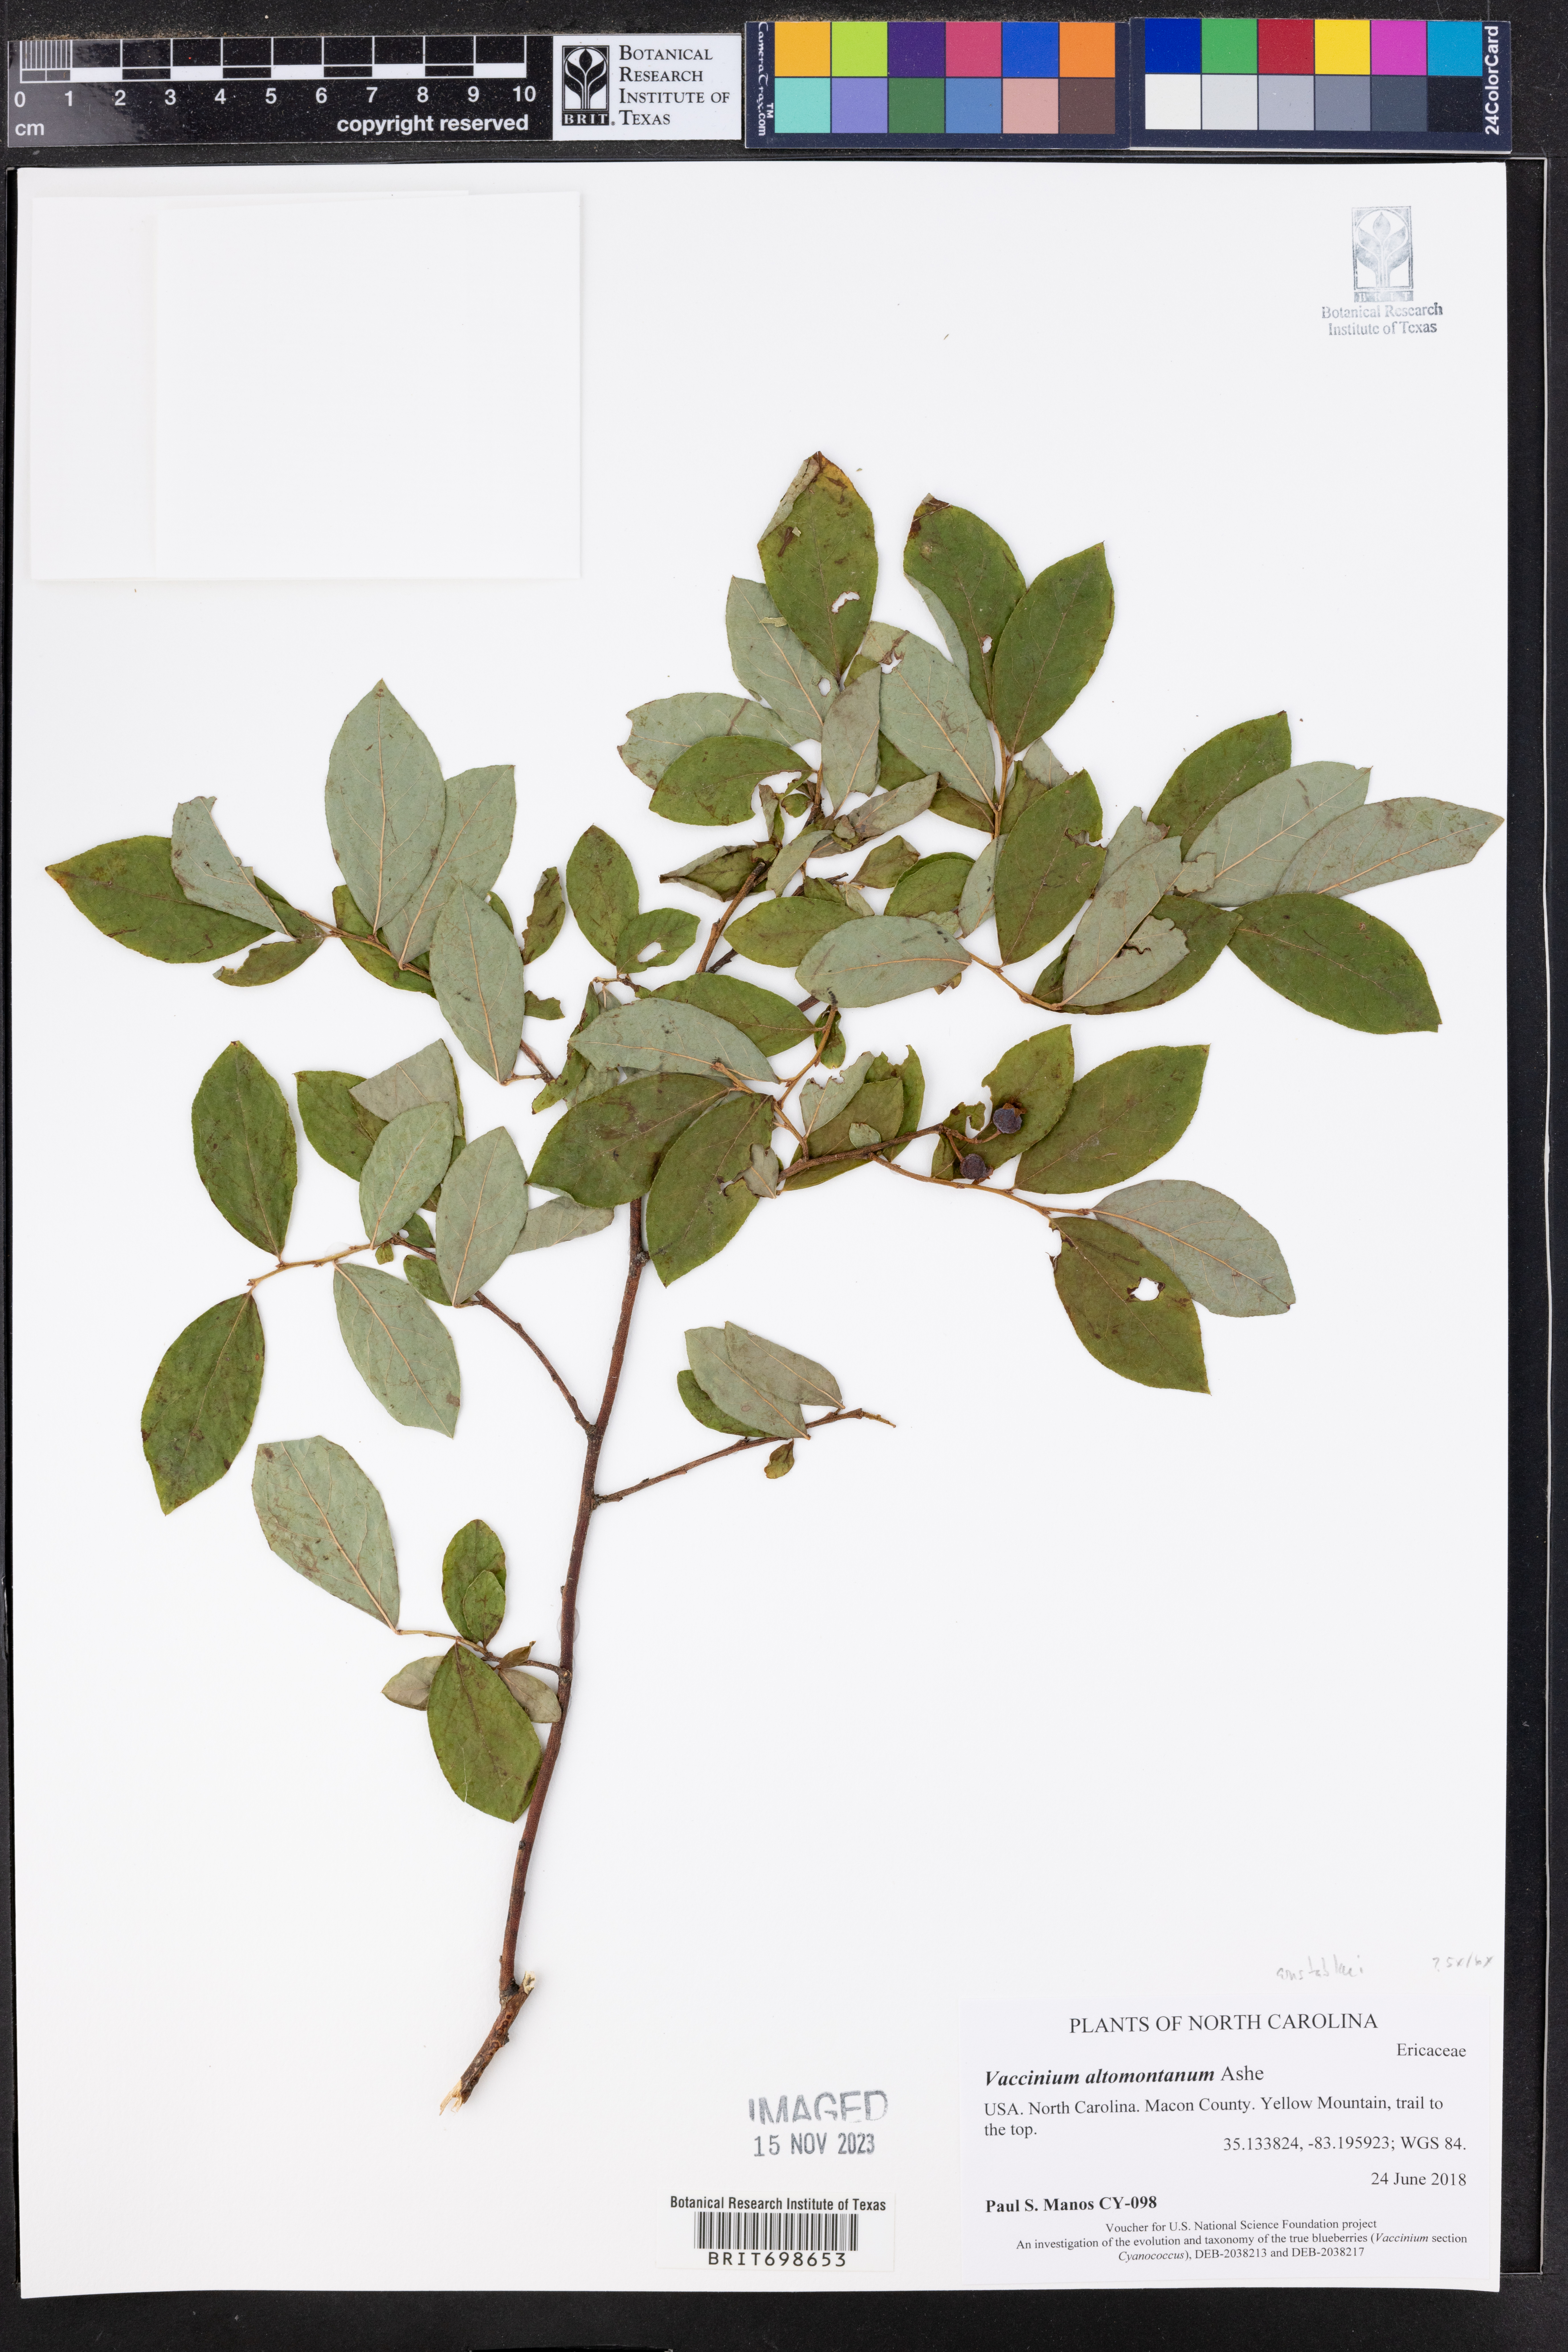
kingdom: Plantae
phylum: Tracheophyta
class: Magnoliopsida
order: Ericales
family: Ericaceae
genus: Vaccinium
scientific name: Vaccinium pallidum
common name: Blue ridge blueberry
